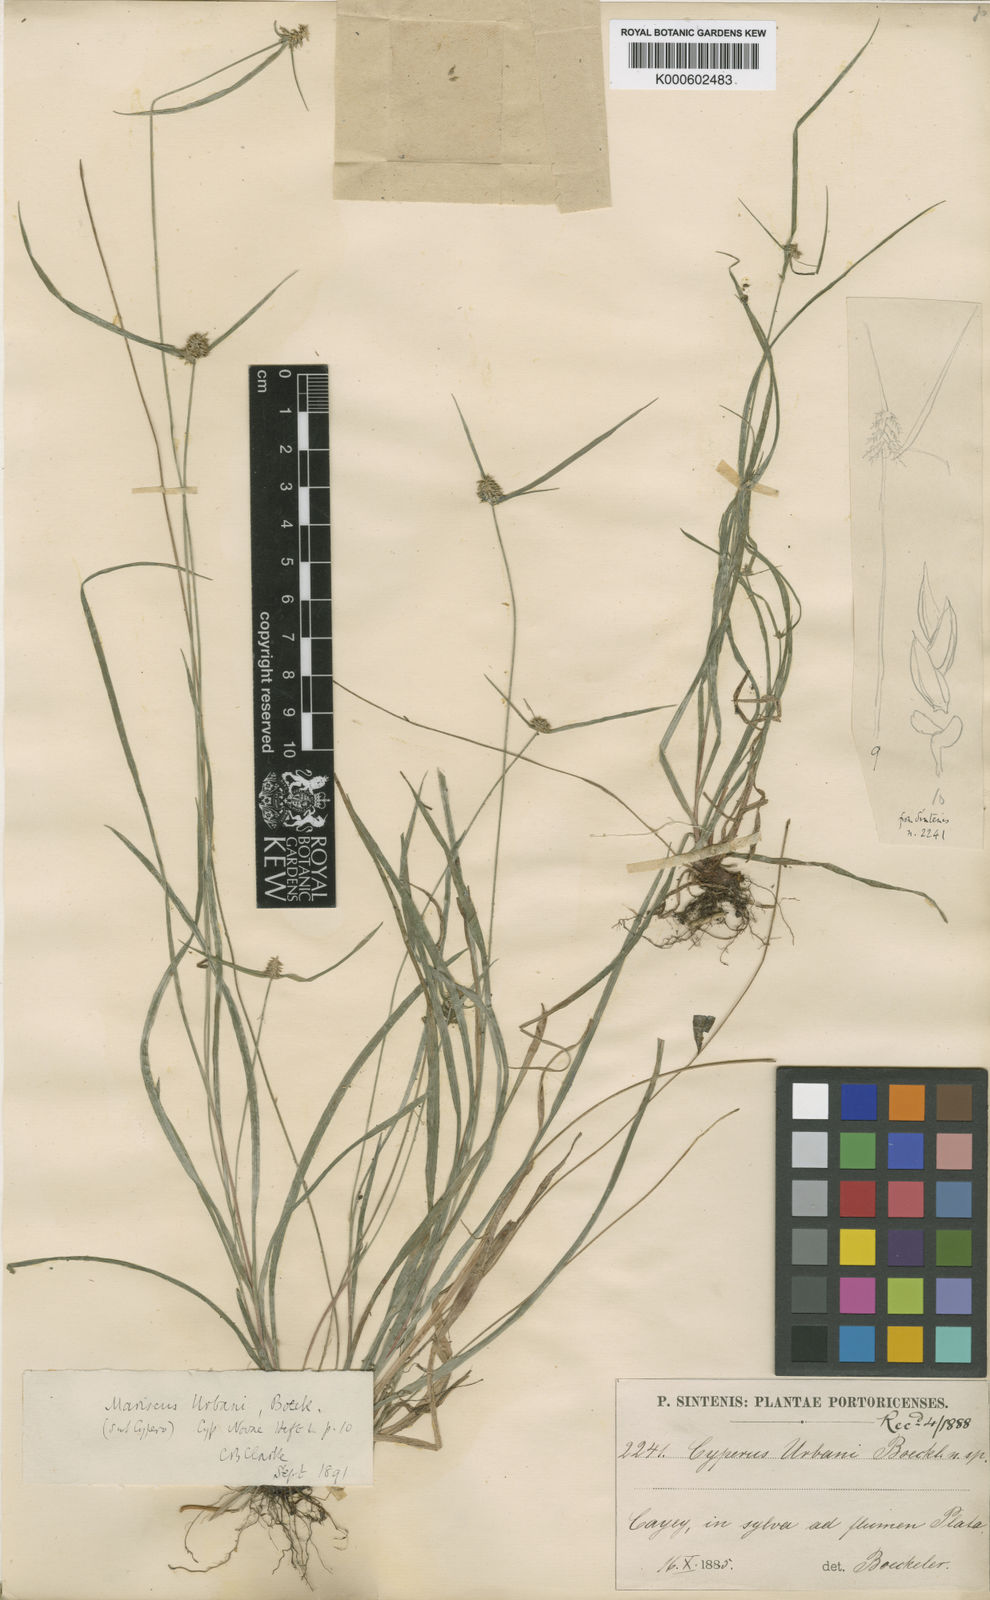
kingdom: Plantae
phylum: Tracheophyta
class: Liliopsida
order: Poales
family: Cyperaceae
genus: Cyperus
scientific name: Cyperus urbani
